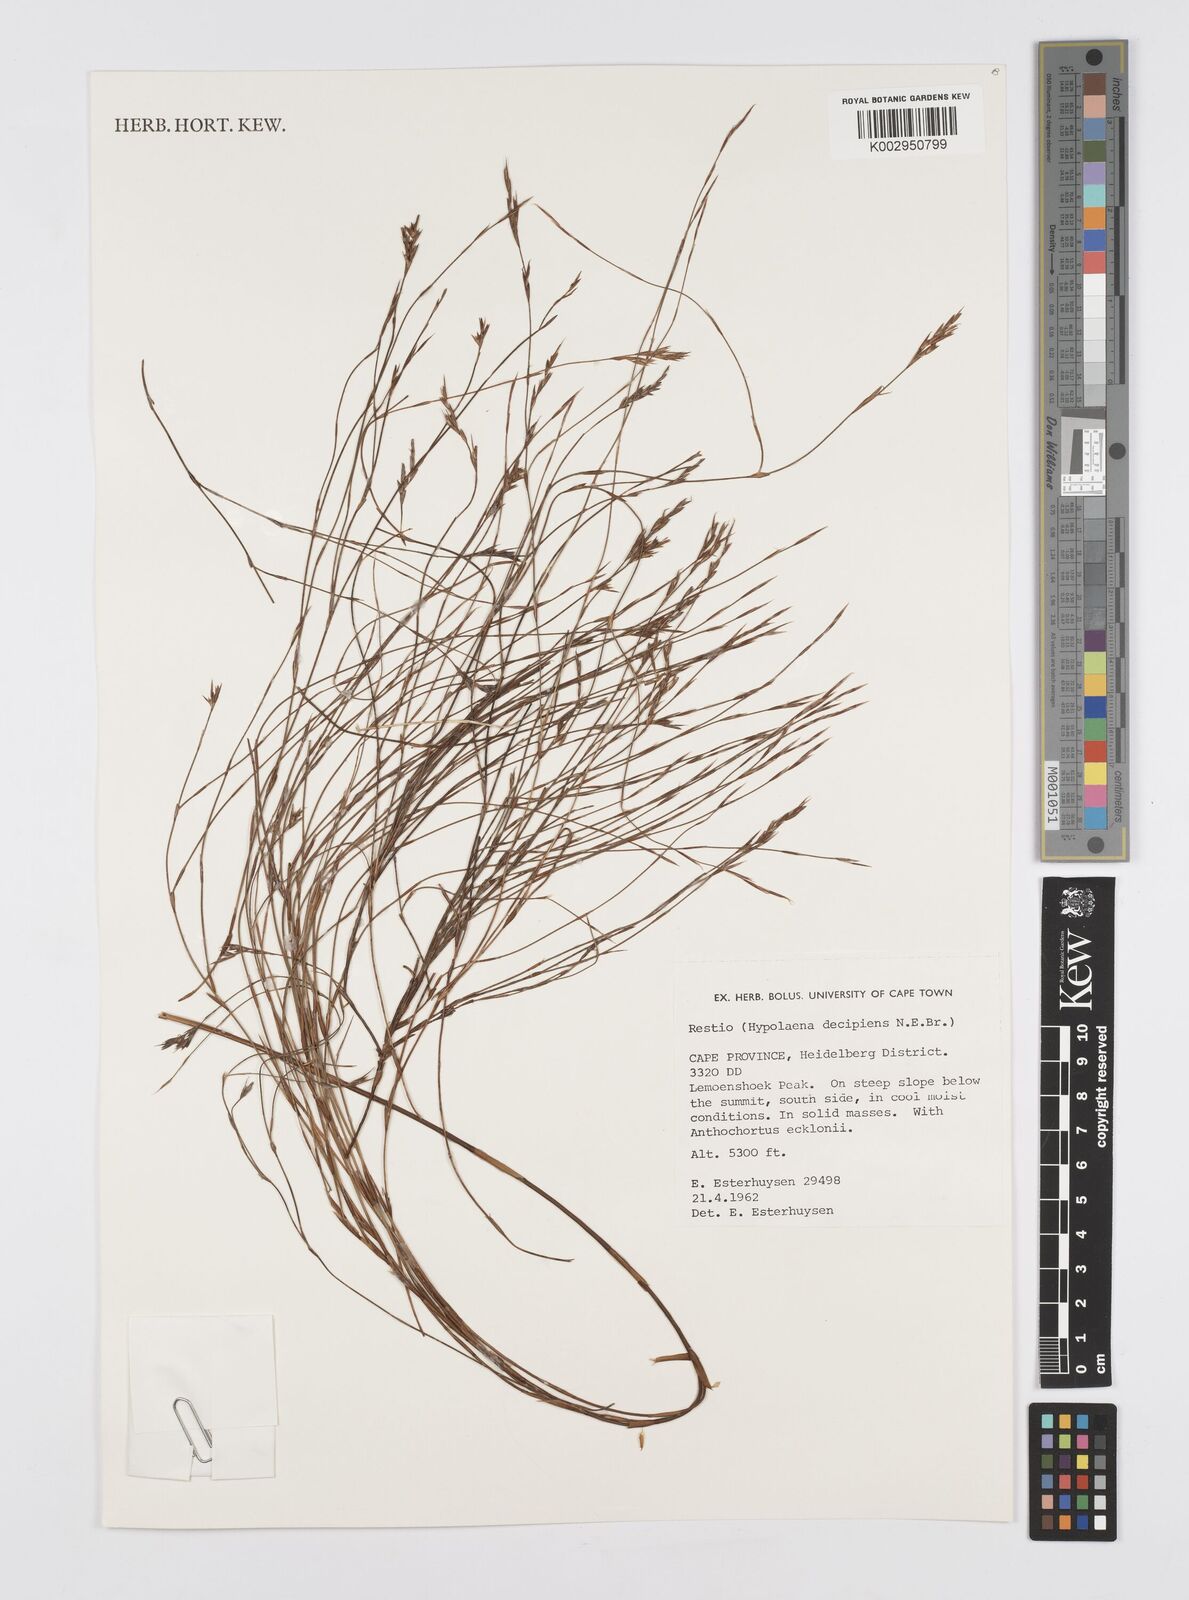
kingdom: Plantae
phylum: Tracheophyta
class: Liliopsida
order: Poales
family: Restionaceae
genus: Restio
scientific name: Restio decipiens
